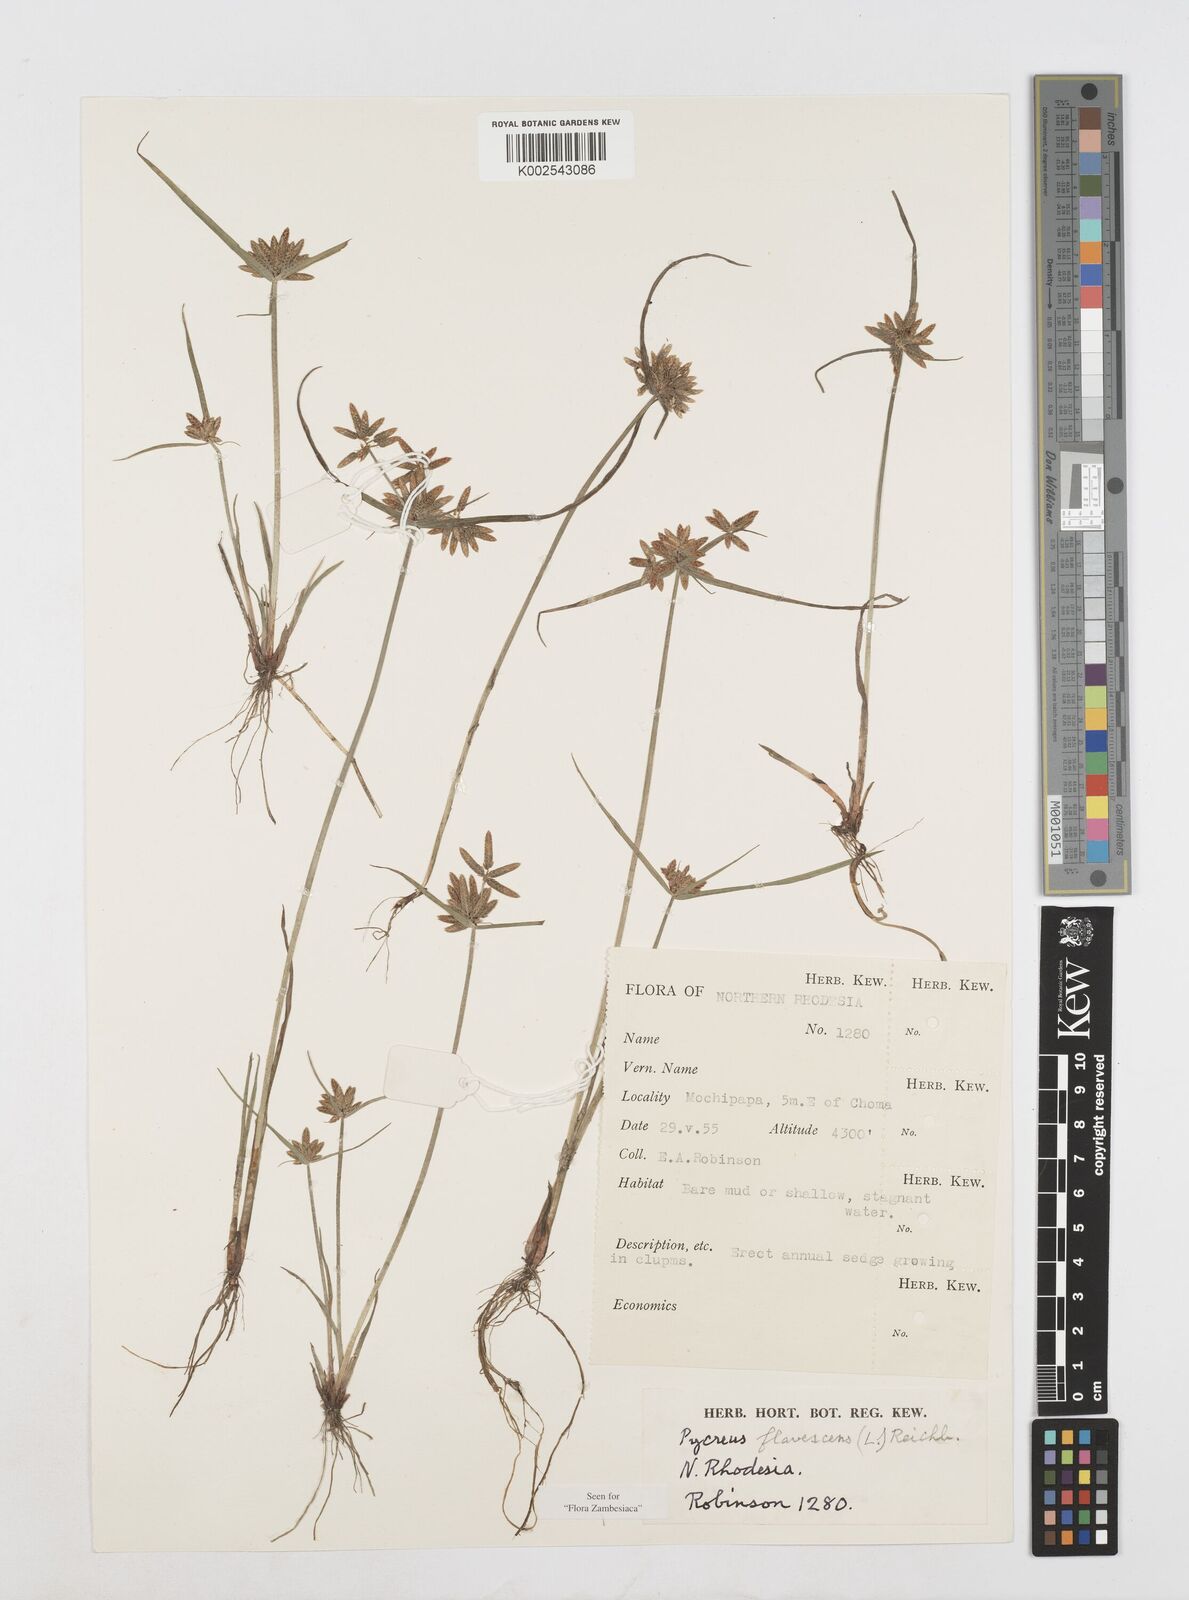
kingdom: Plantae
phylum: Tracheophyta
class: Liliopsida
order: Poales
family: Cyperaceae
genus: Cyperus
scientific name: Cyperus flavescens
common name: Yellow galingale
